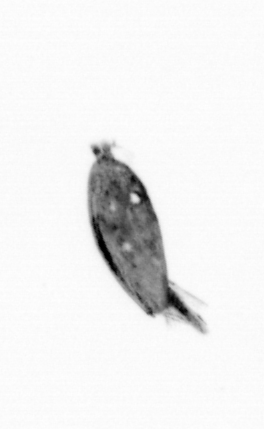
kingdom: Animalia
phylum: Arthropoda
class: Maxillopoda
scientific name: Maxillopoda
